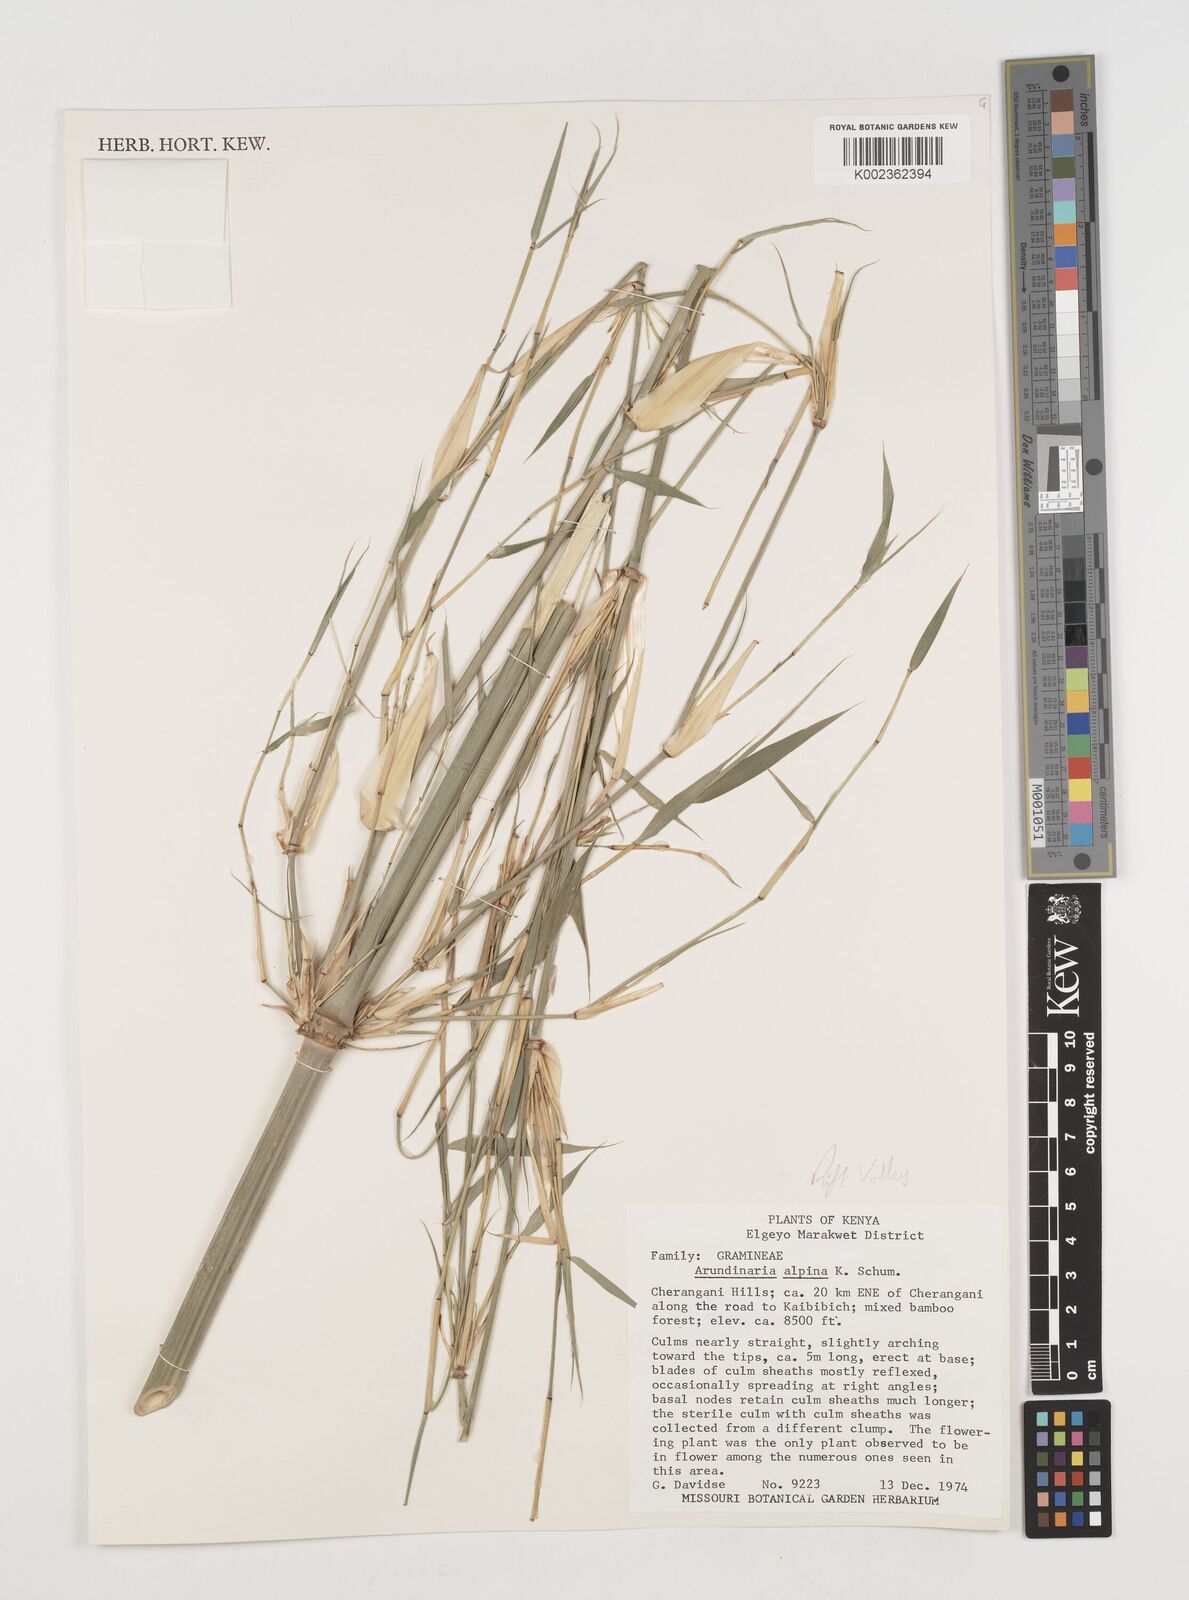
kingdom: Plantae
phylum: Tracheophyta
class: Liliopsida
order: Poales
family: Poaceae
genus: Oldeania
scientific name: Oldeania alpina
